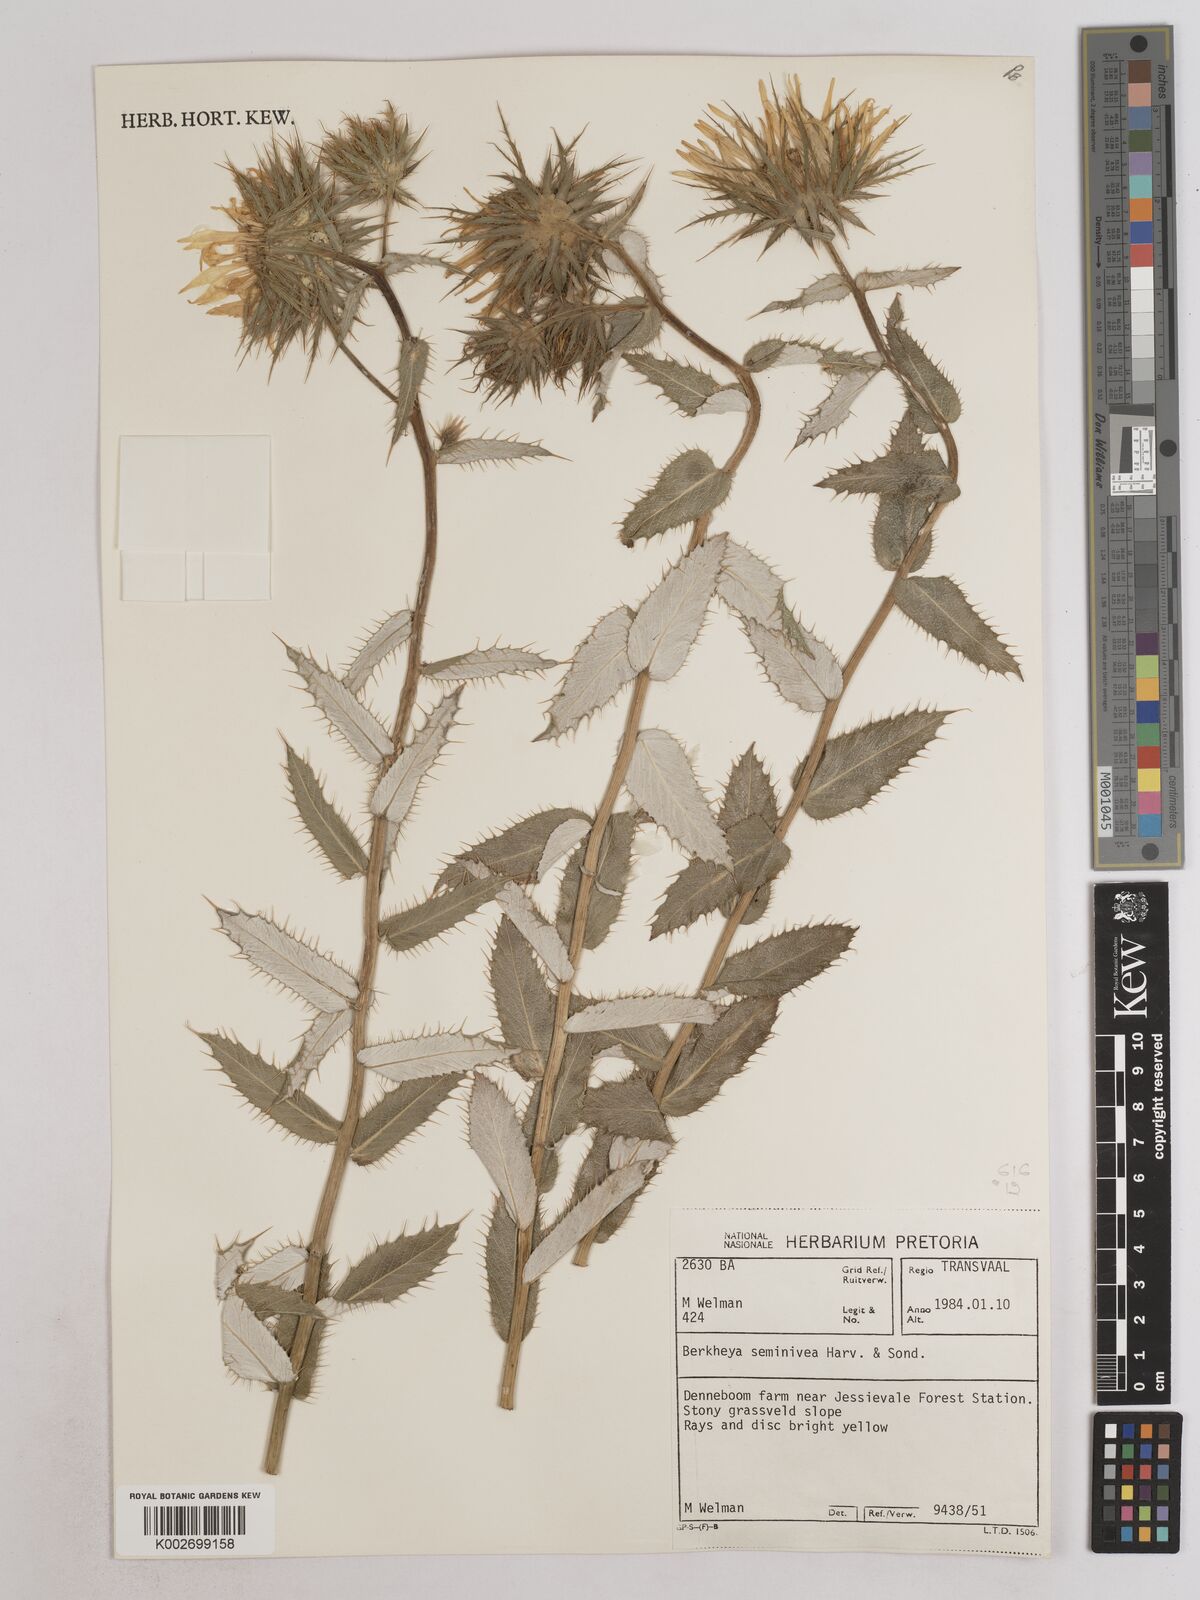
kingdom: Plantae
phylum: Tracheophyta
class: Magnoliopsida
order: Asterales
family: Asteraceae
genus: Berkheya
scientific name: Berkheya seminivea
